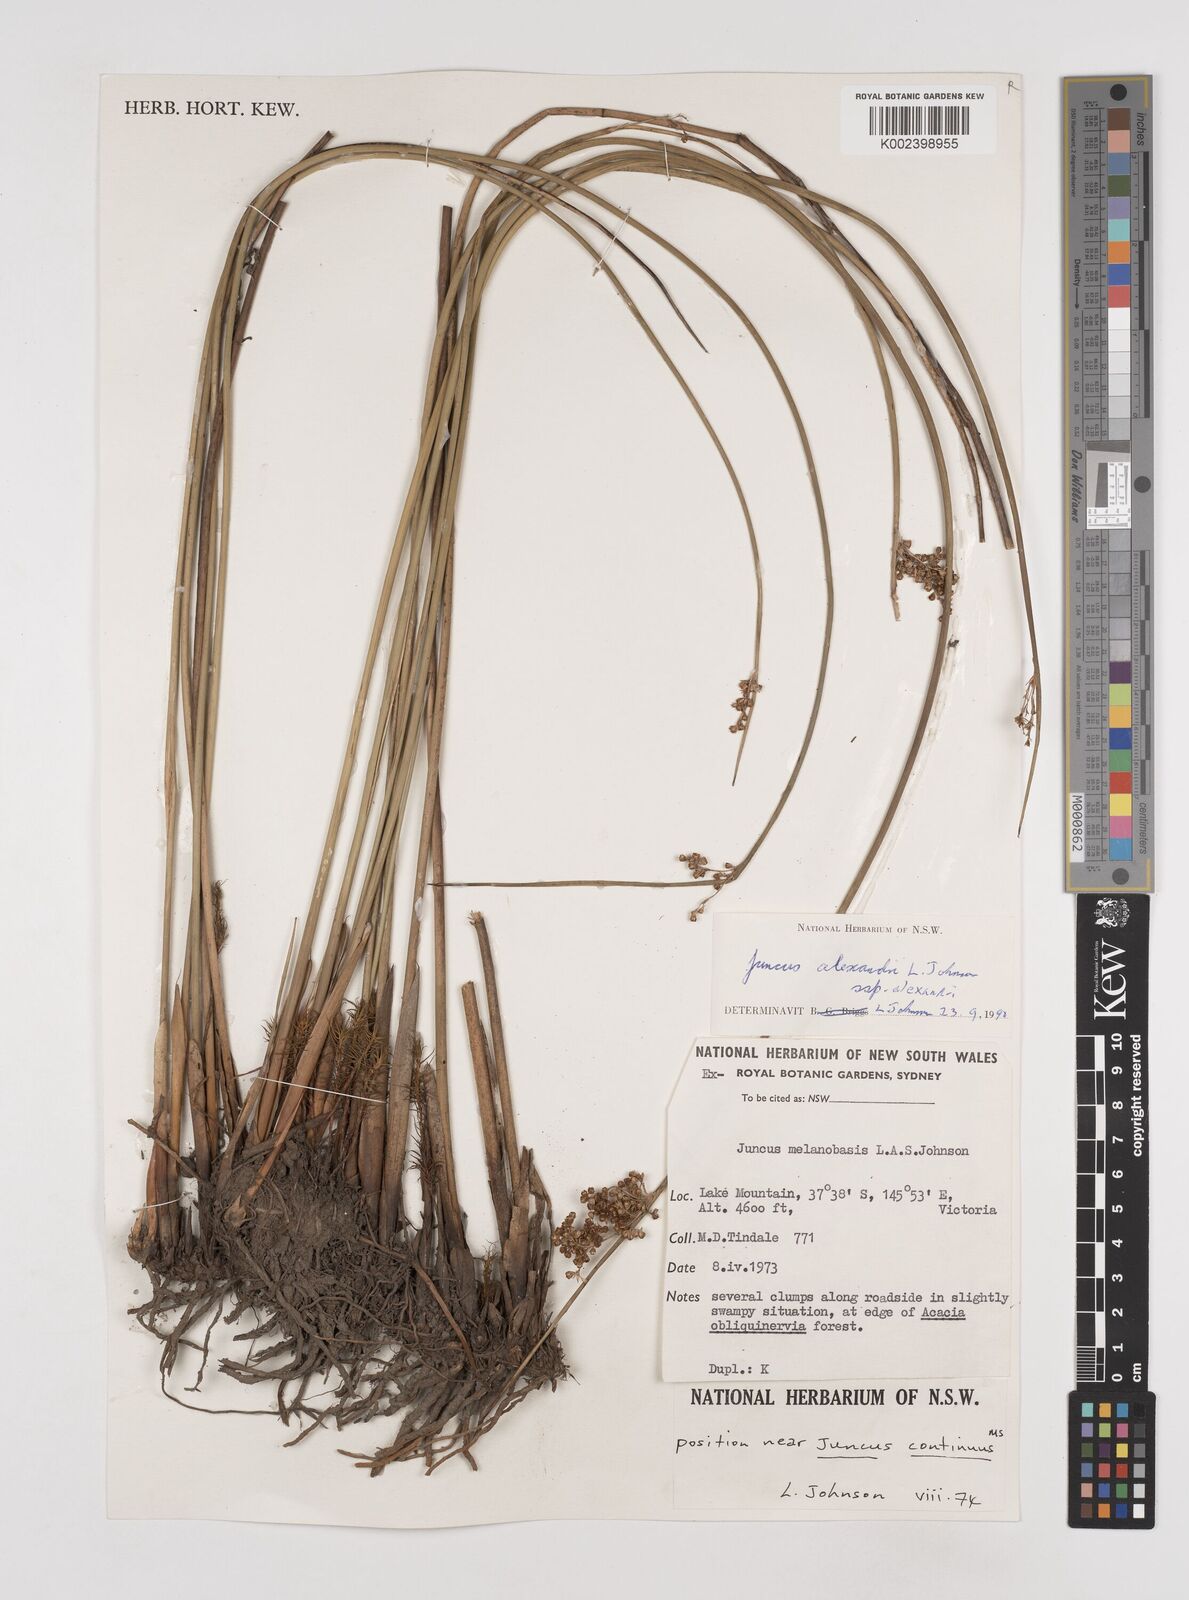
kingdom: Plantae
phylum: Tracheophyta
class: Liliopsida
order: Poales
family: Juncaceae
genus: Juncus
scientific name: Juncus alexandri
